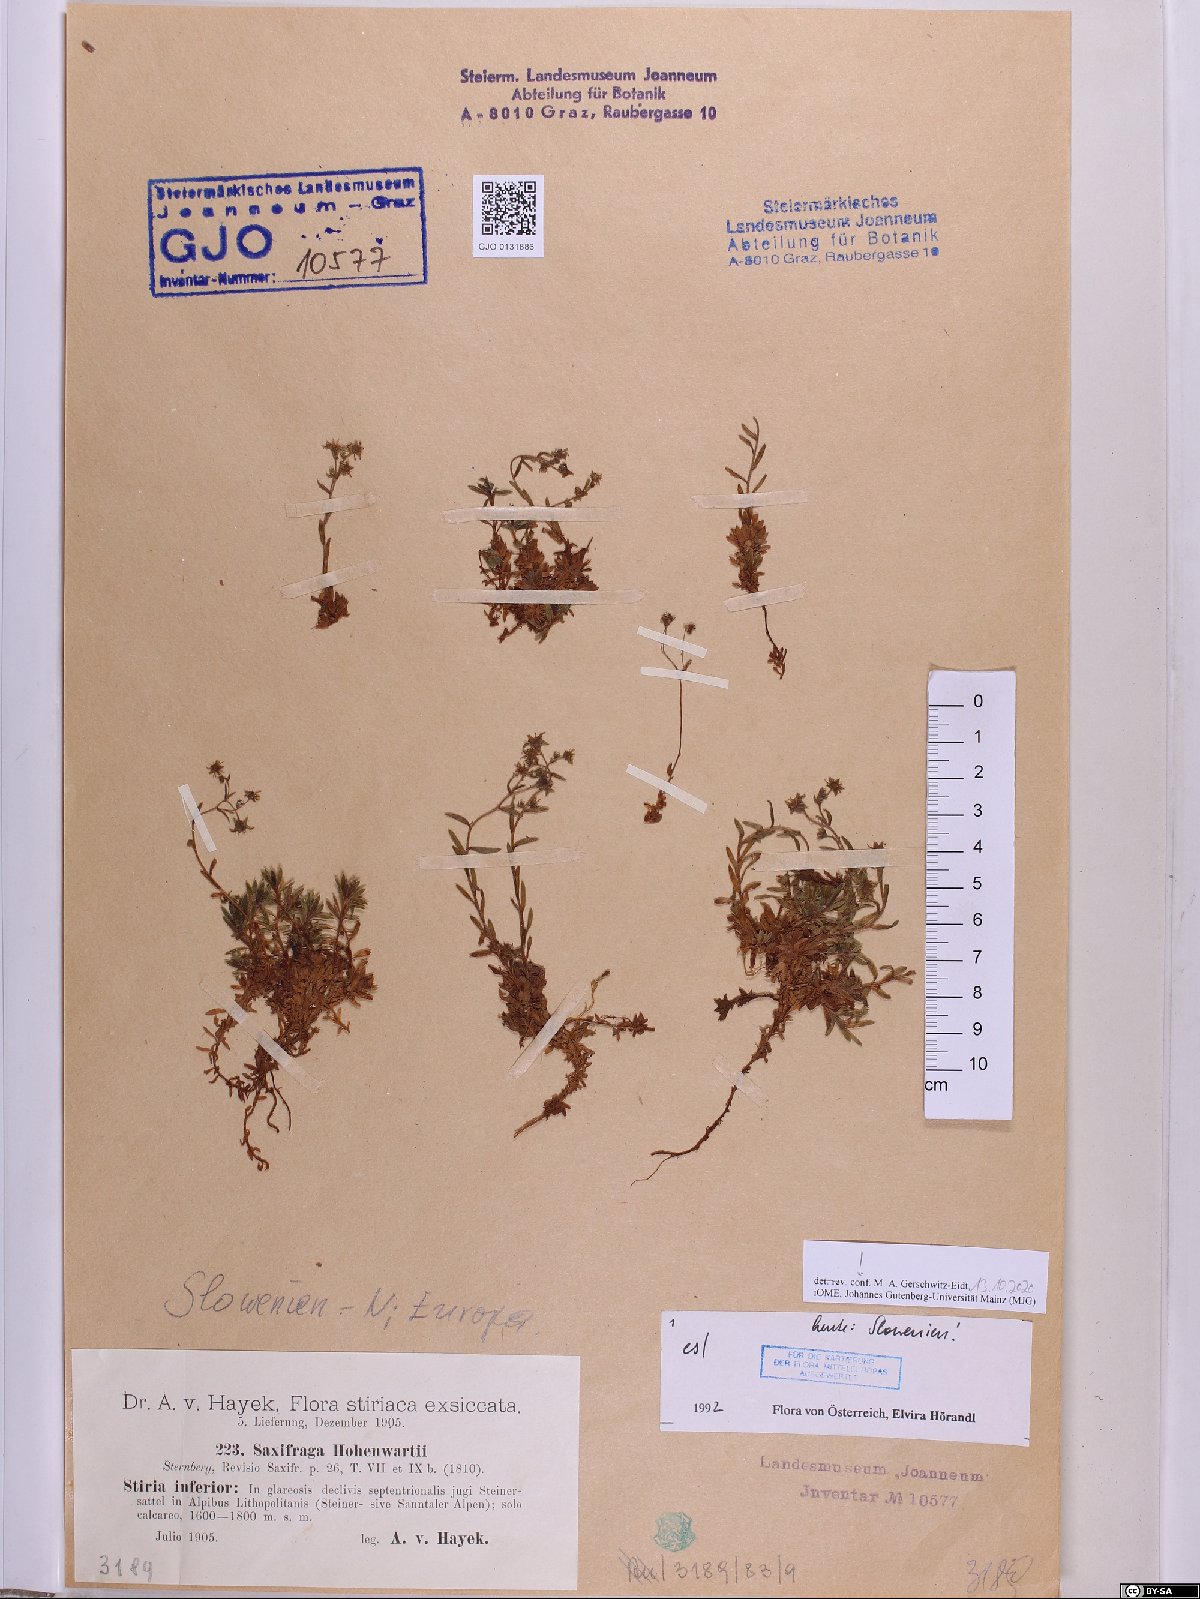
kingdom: Plantae
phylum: Tracheophyta
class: Magnoliopsida
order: Saxifragales
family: Saxifragaceae
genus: Saxifraga
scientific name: Saxifraga hohenwartii
